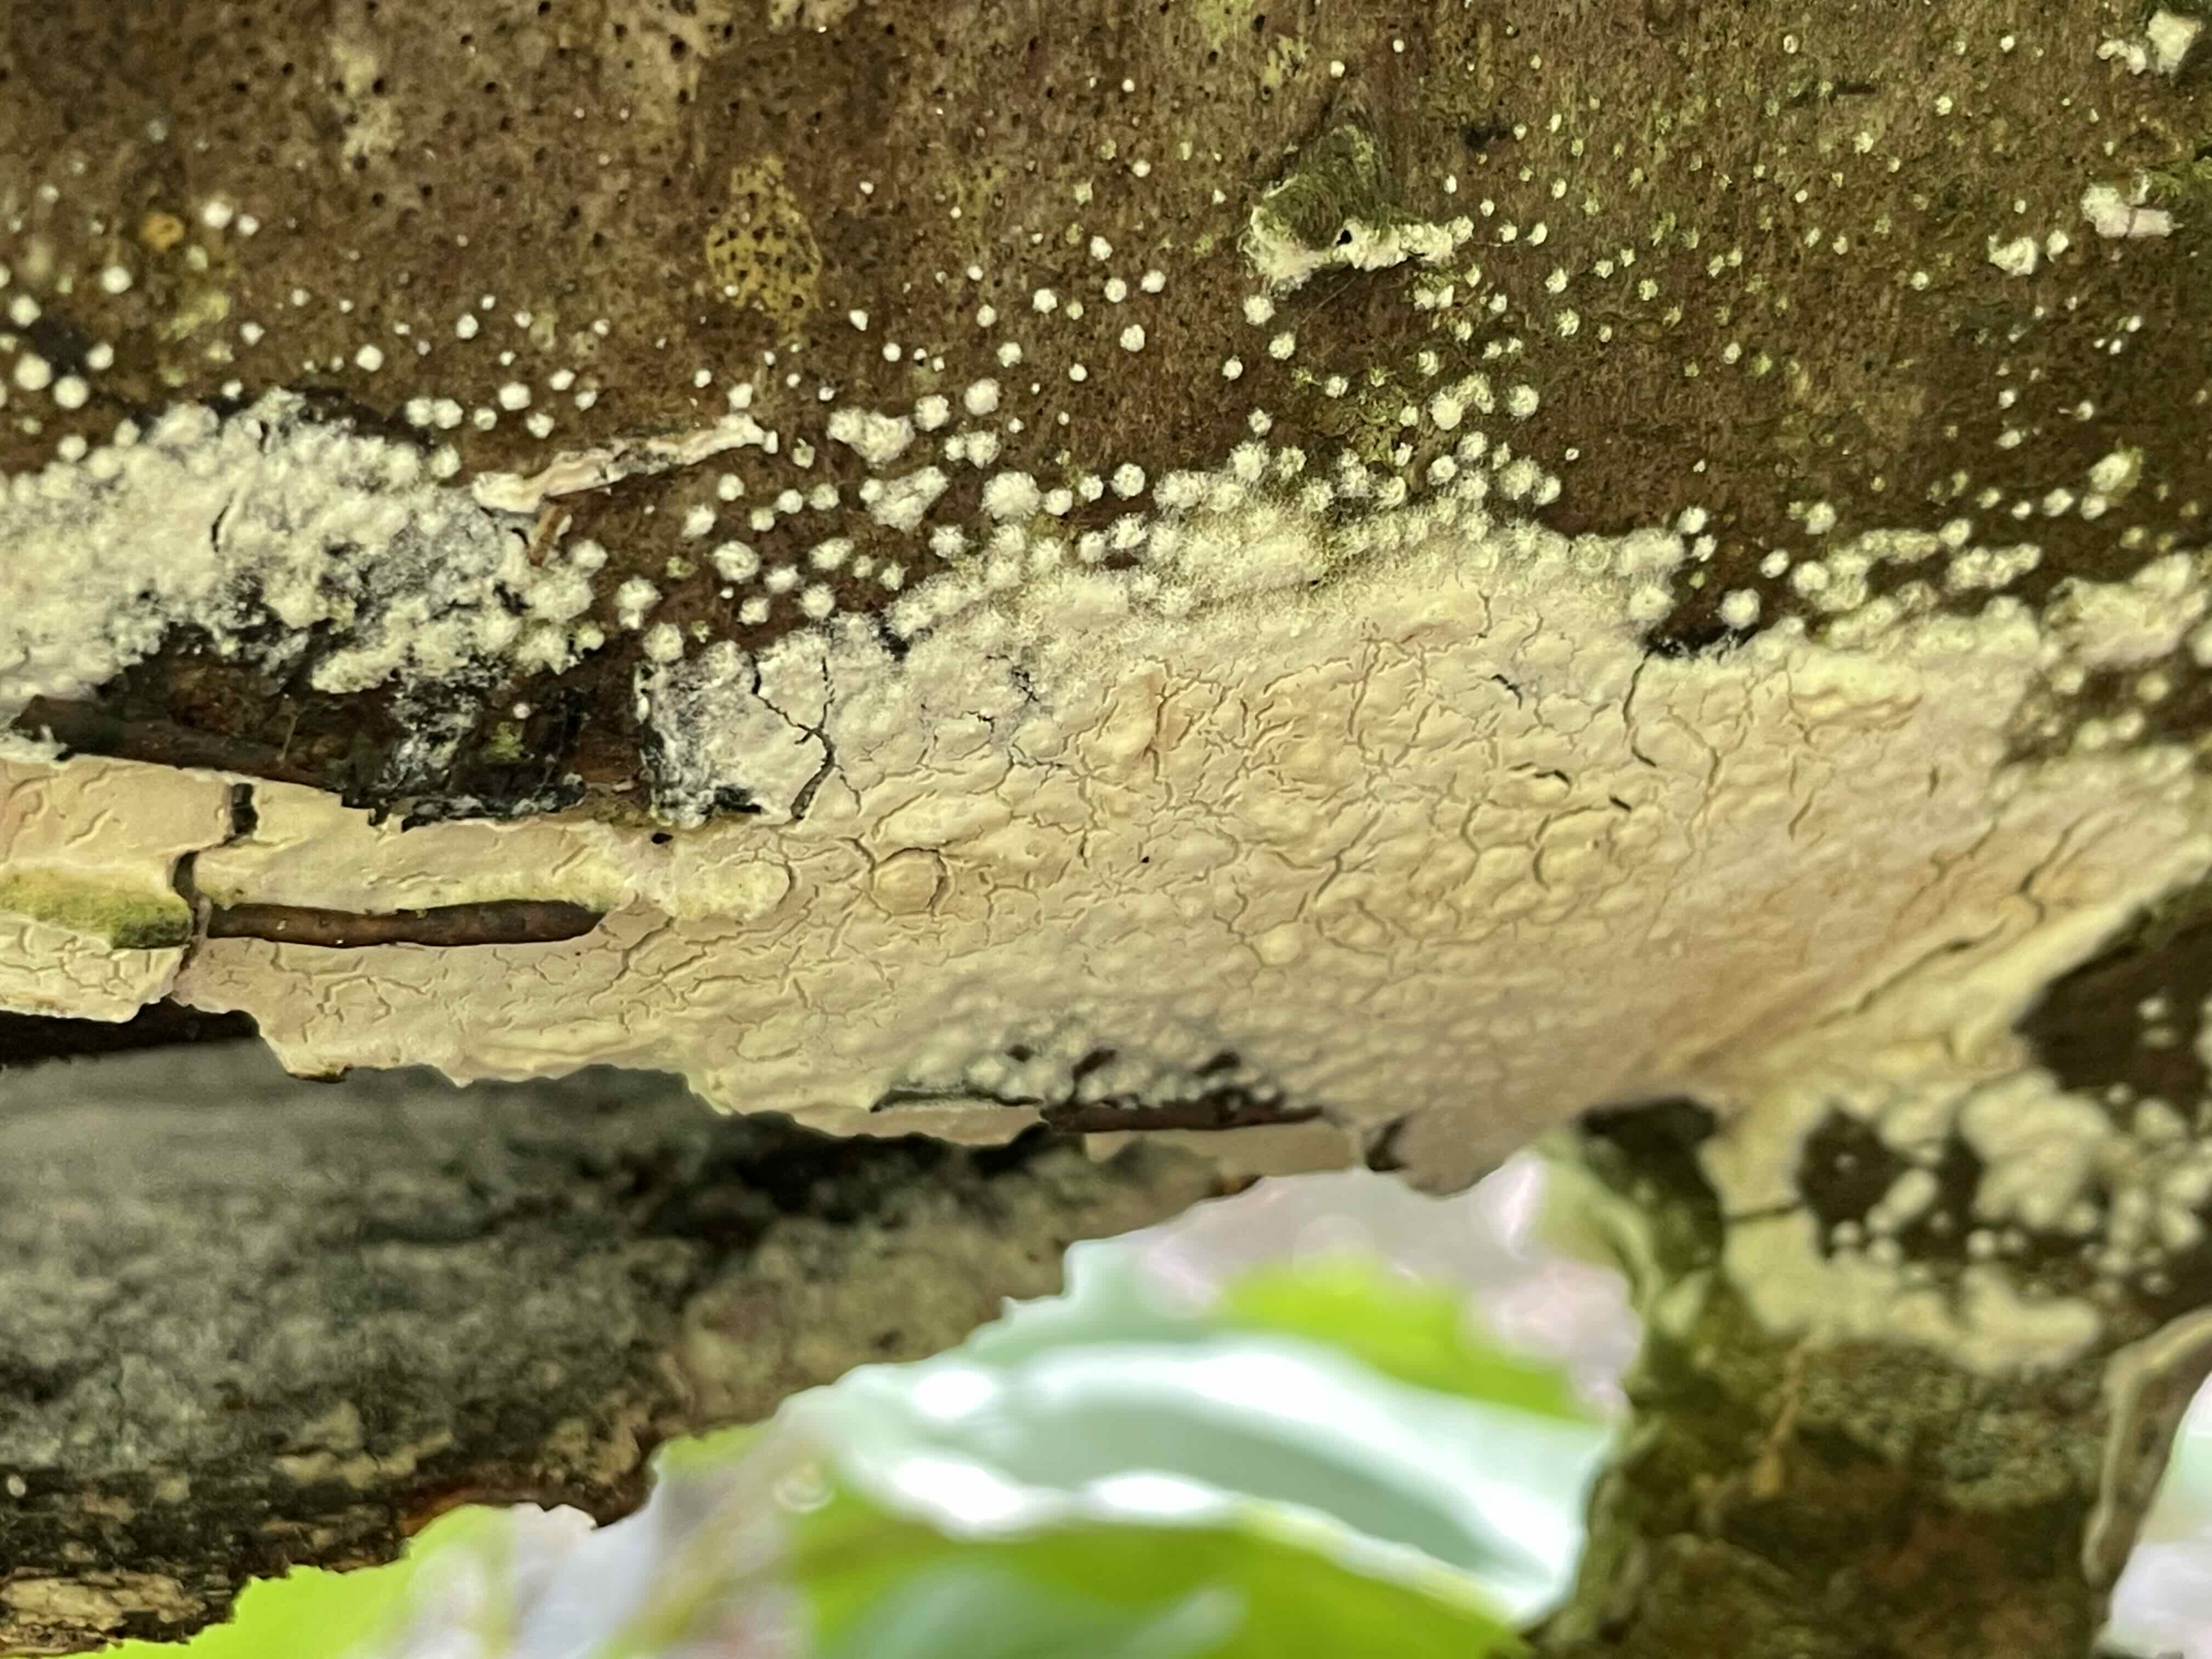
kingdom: Fungi
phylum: Basidiomycota
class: Agaricomycetes
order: Corticiales
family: Corticiaceae
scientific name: Corticiaceae
